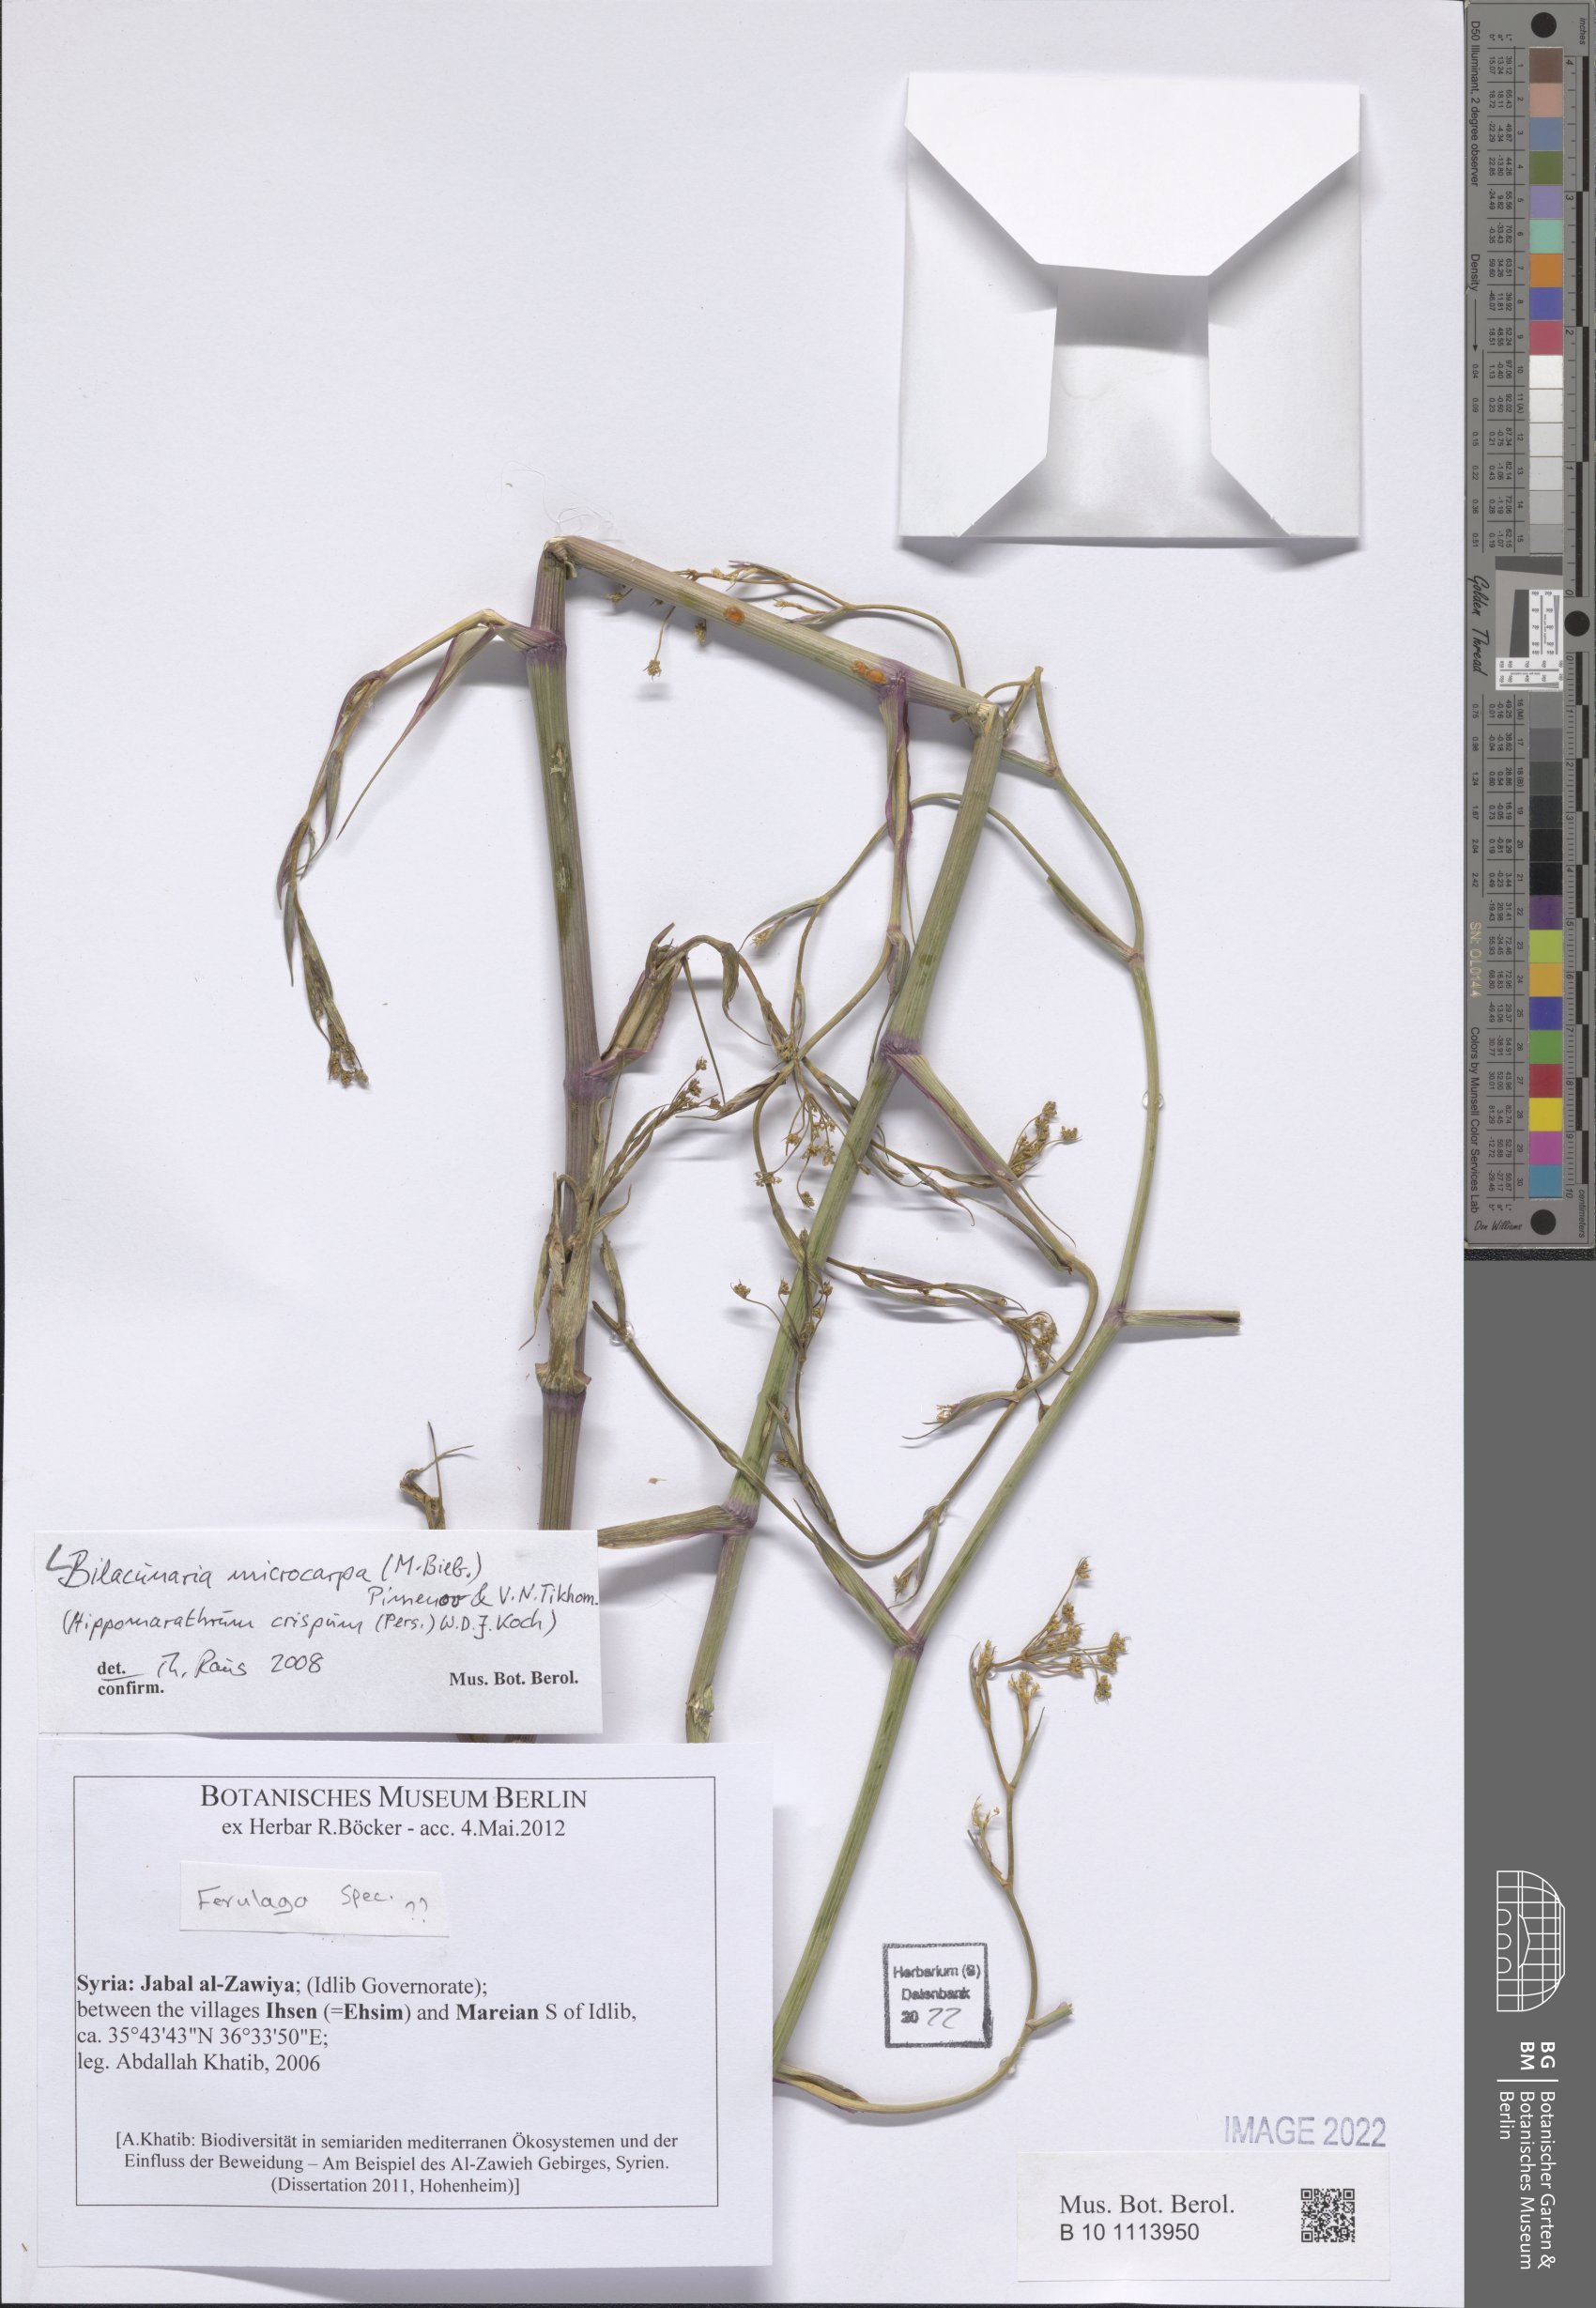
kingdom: Plantae
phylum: Tracheophyta
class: Magnoliopsida
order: Apiales
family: Apiaceae
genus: Bilacunaria
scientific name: Bilacunaria microcarpa
